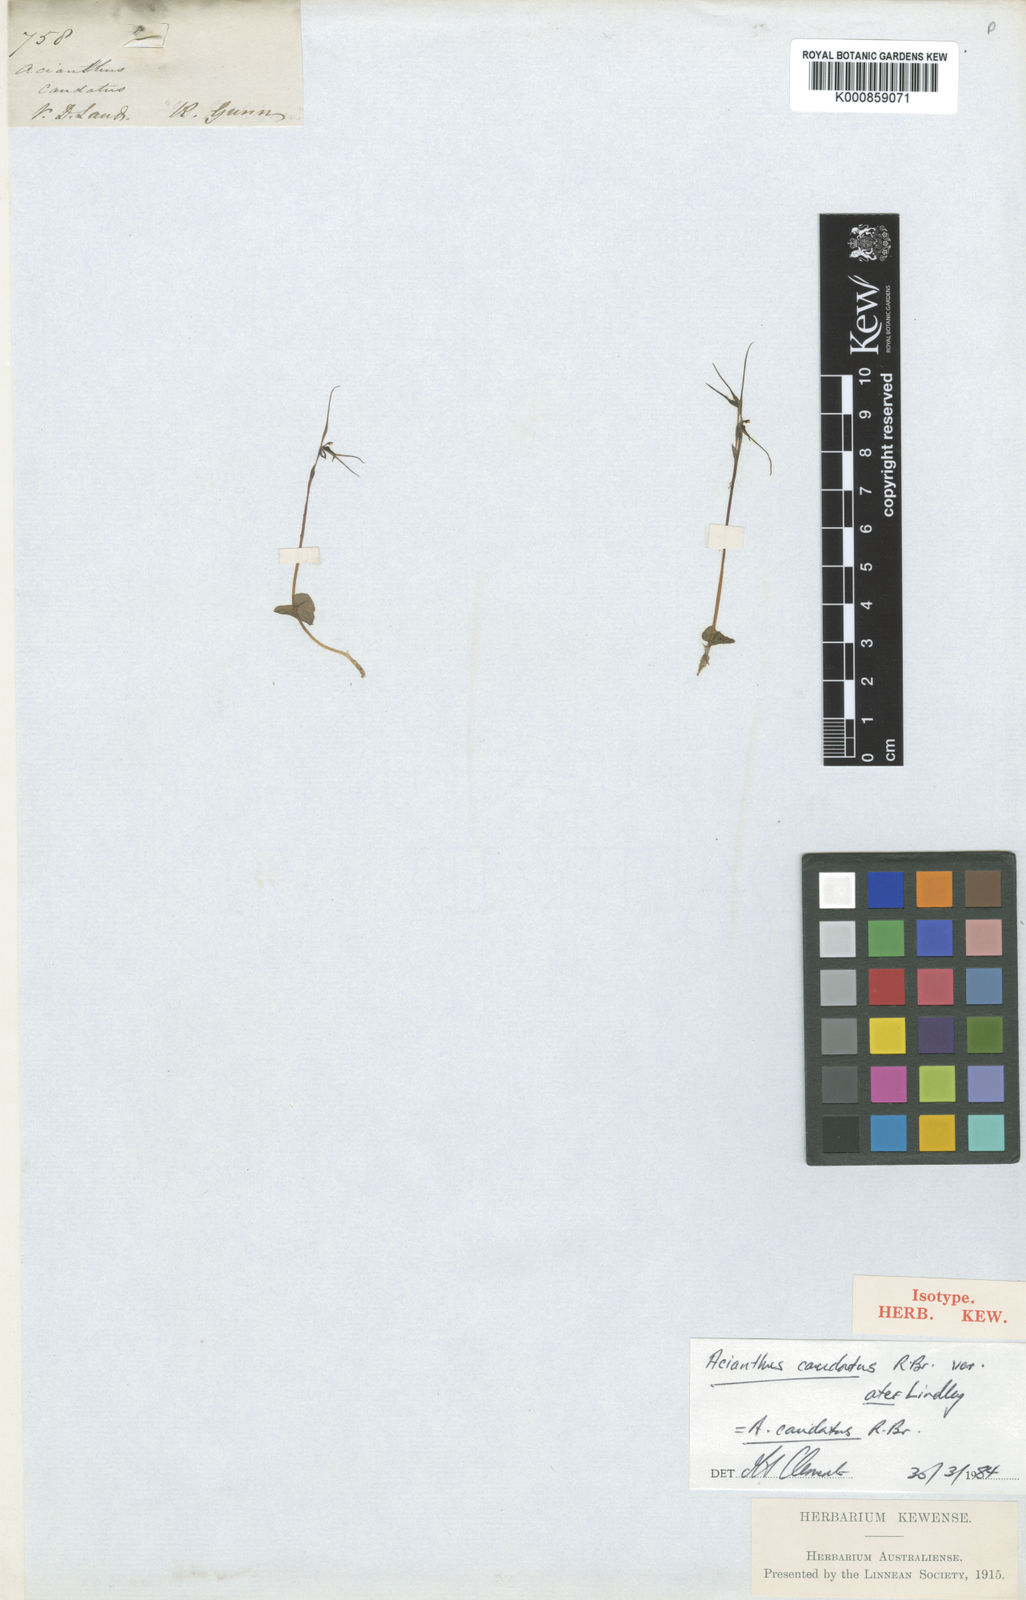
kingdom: Plantae
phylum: Tracheophyta
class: Liliopsida
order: Asparagales
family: Orchidaceae
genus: Acianthus
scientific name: Acianthus caudatus
